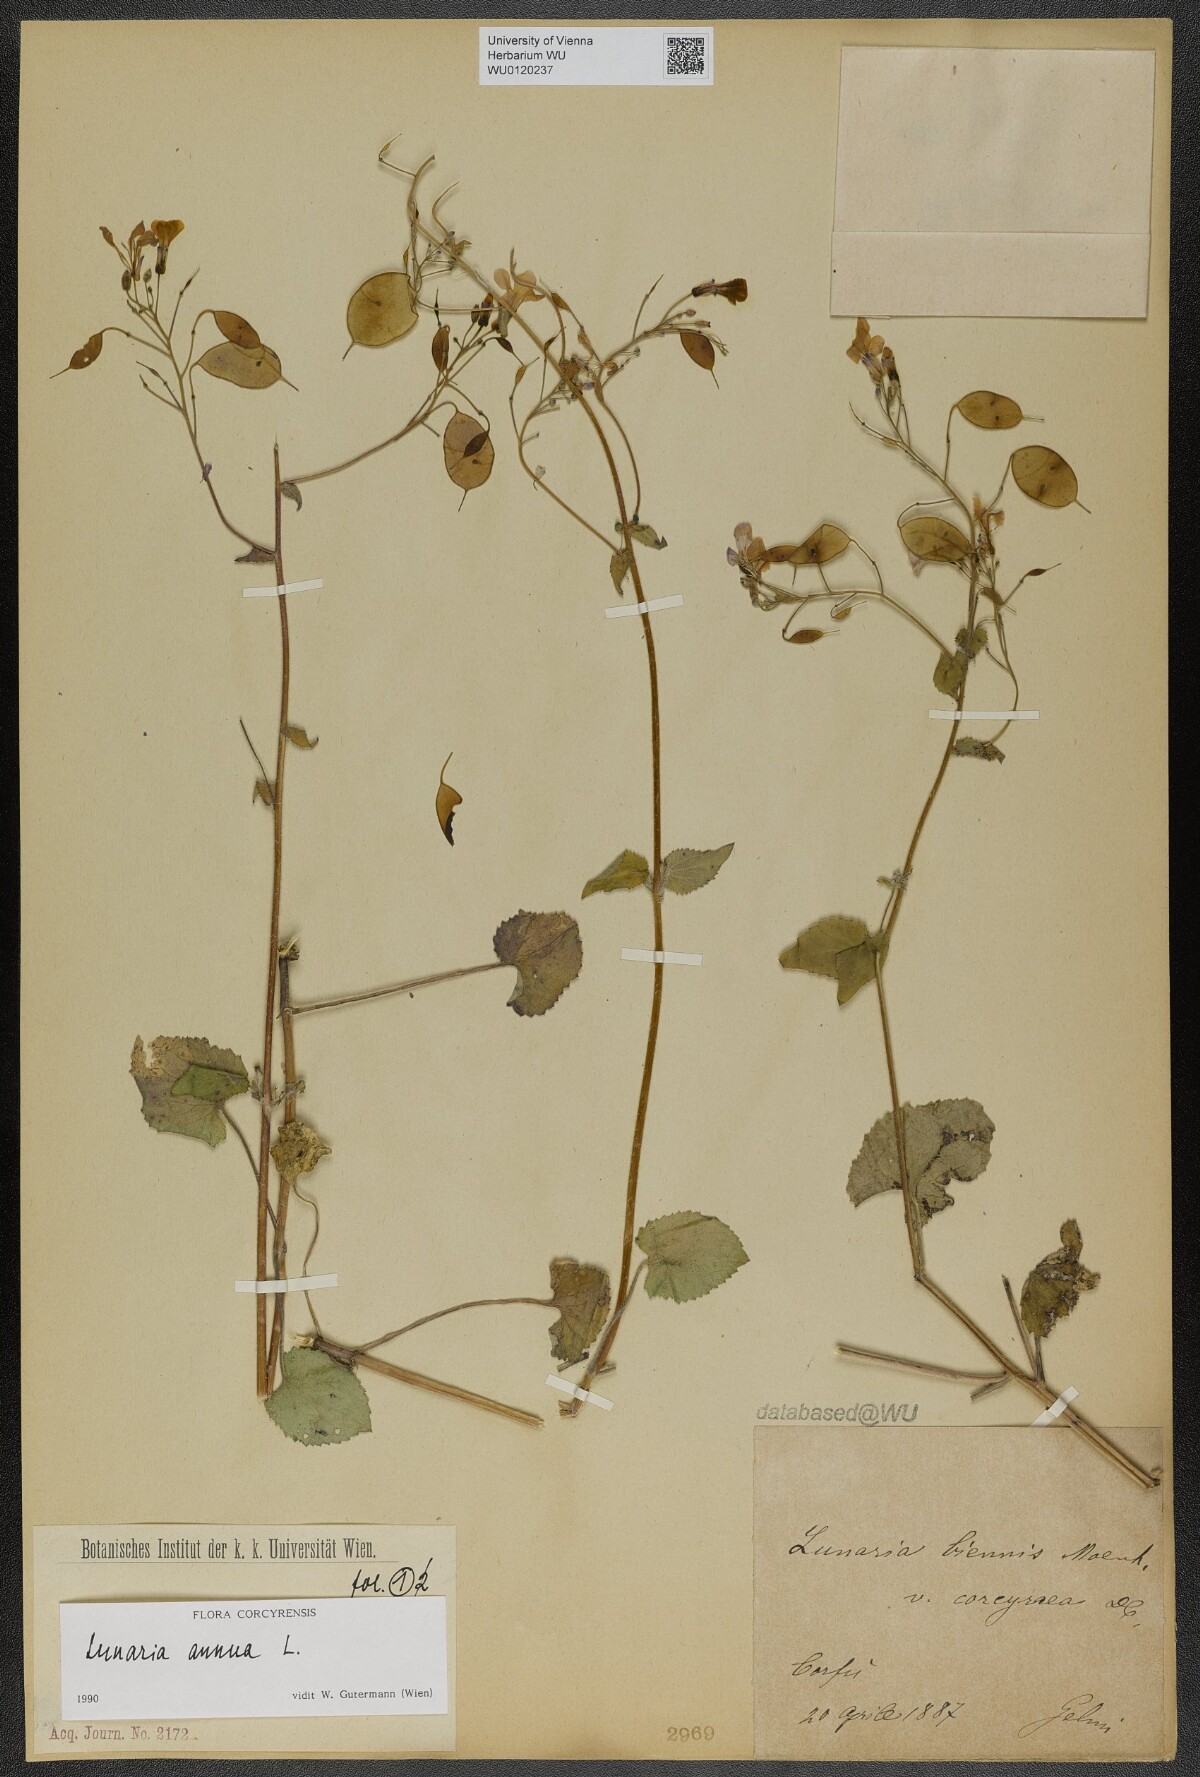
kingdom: Plantae
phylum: Tracheophyta
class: Magnoliopsida
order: Brassicales
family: Brassicaceae
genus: Lunaria
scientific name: Lunaria annua
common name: Honesty
